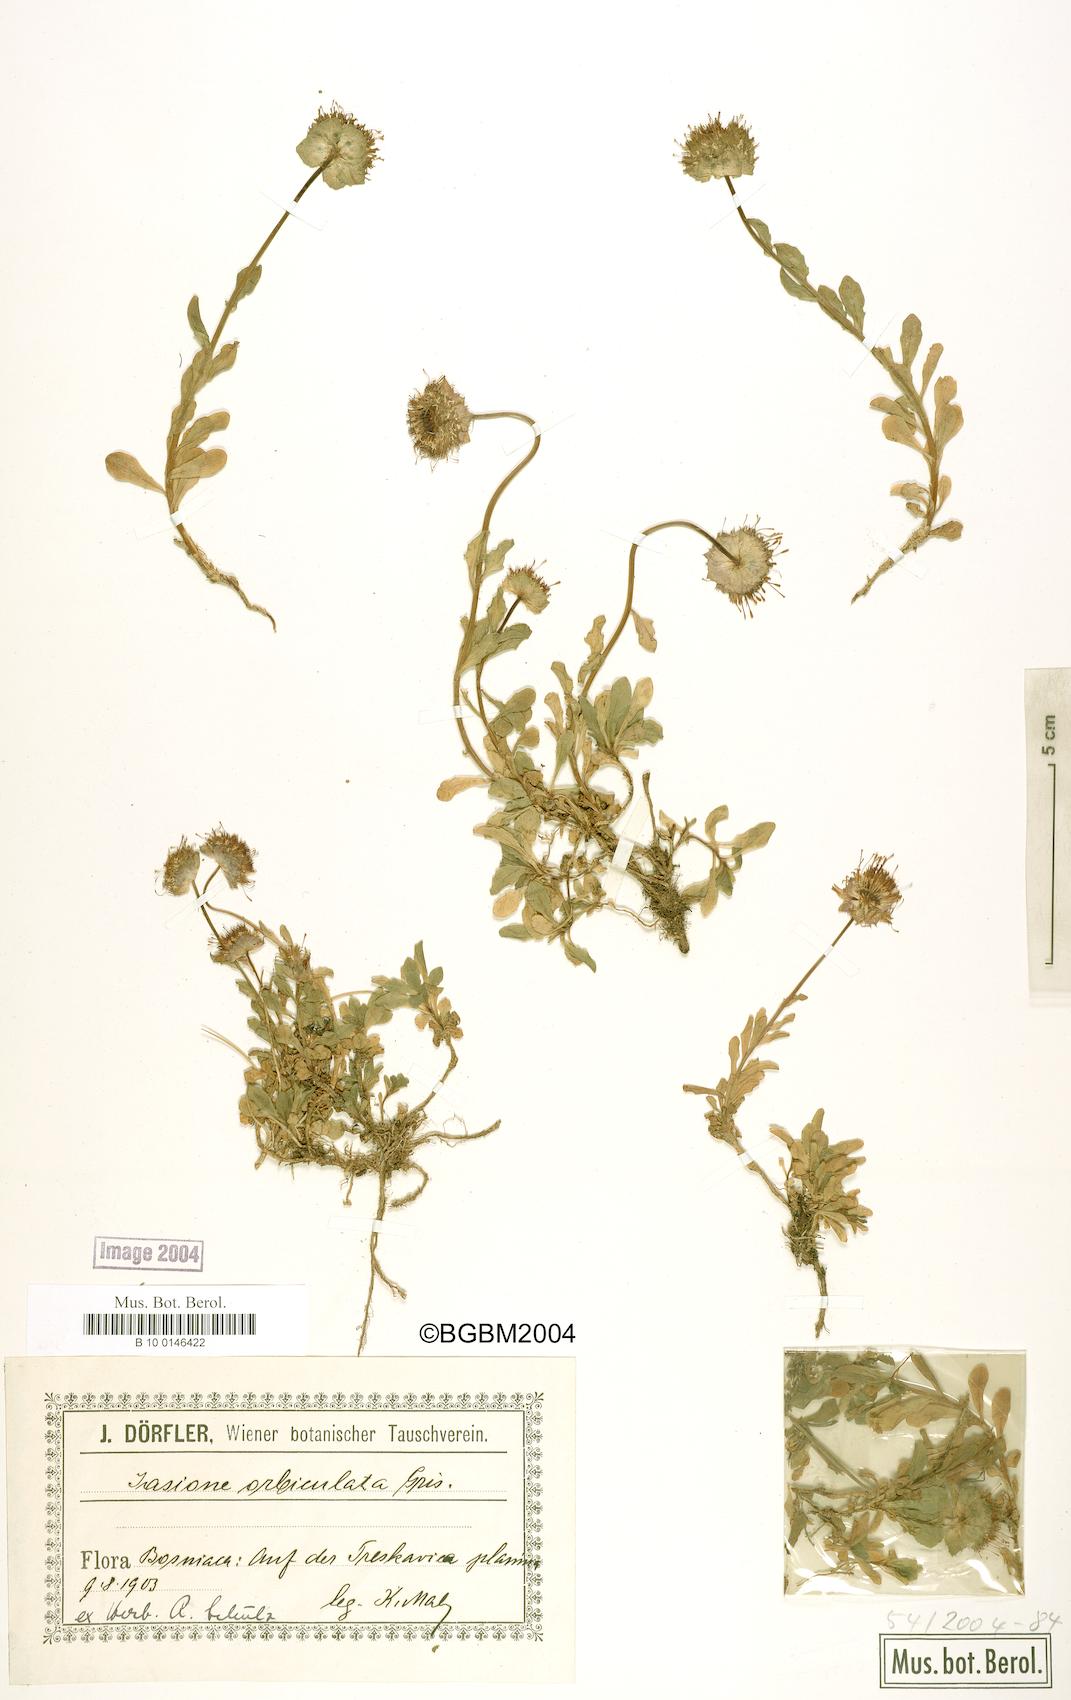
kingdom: Plantae
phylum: Tracheophyta
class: Magnoliopsida
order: Asterales
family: Campanulaceae
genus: Jasione
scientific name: Jasione orbiculata
